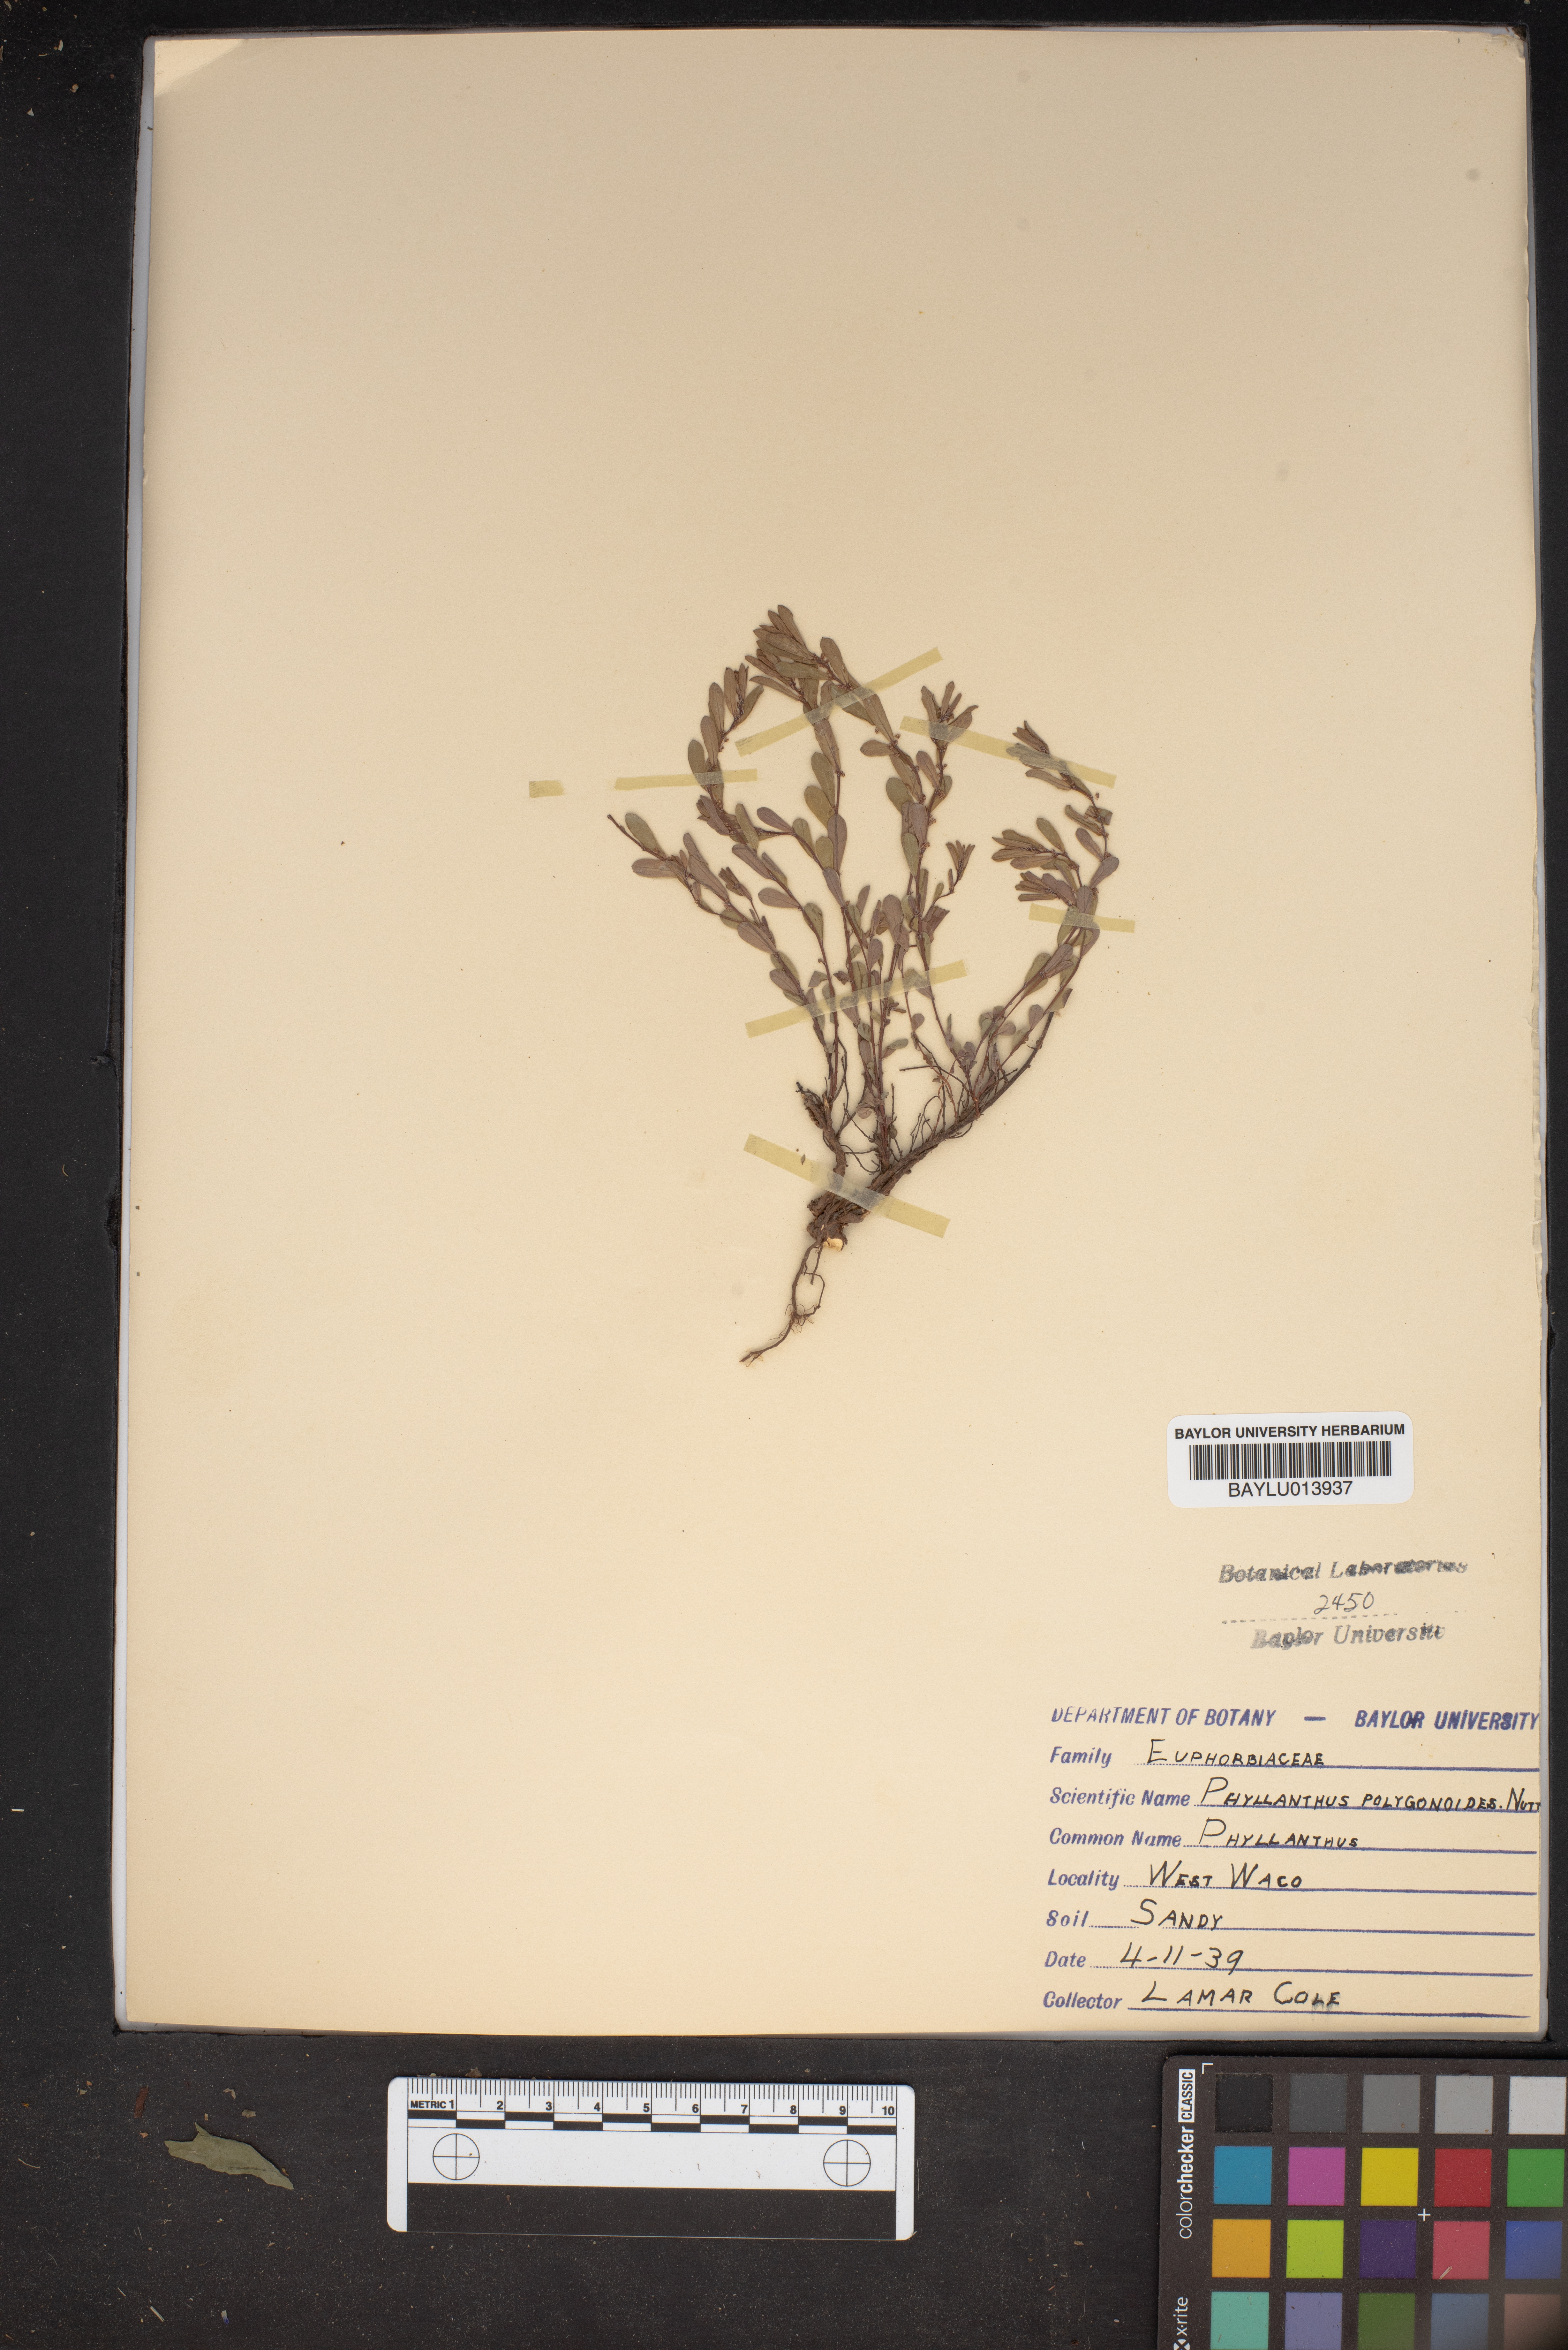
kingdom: Plantae
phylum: Tracheophyta
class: Magnoliopsida
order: Malpighiales
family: Phyllanthaceae
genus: Phyllanthus
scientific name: Phyllanthus polygonoides
